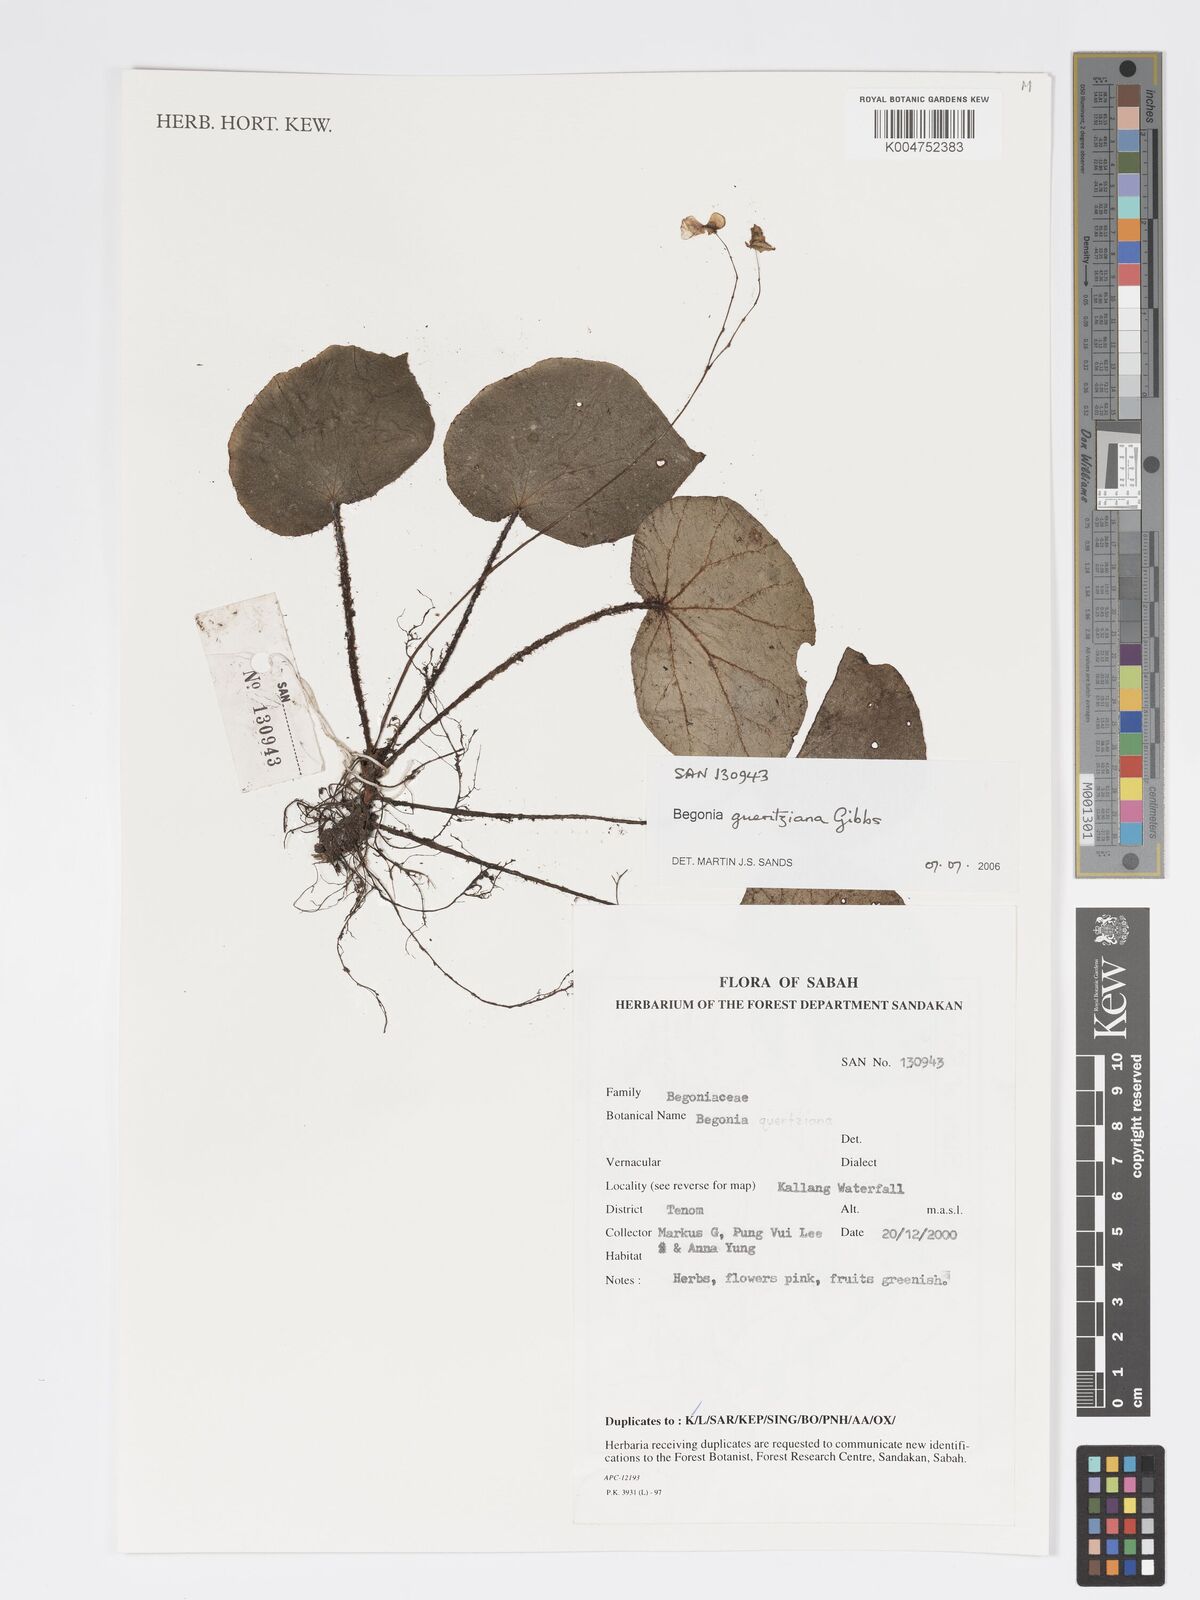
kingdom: Plantae
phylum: Tracheophyta
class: Magnoliopsida
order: Cucurbitales
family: Begoniaceae
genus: Begonia
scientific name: Begonia gueritziana
